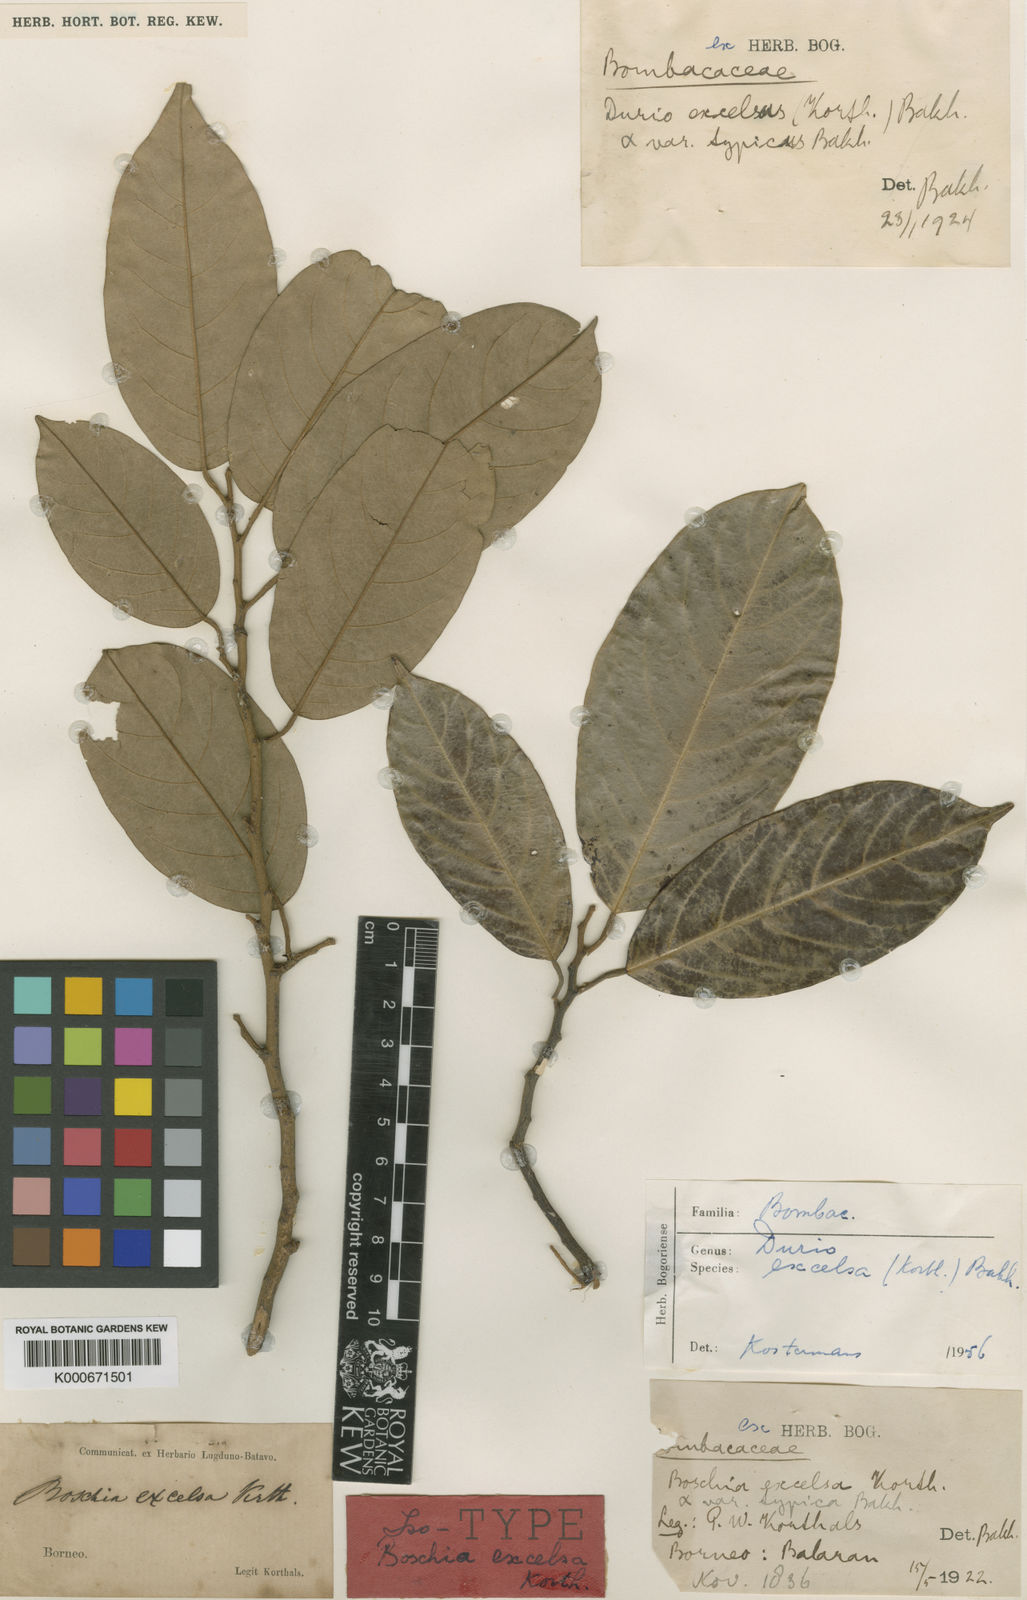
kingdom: Plantae
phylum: Tracheophyta
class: Magnoliopsida
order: Malvales
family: Malvaceae
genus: Boschia
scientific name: Boschia excelsa
